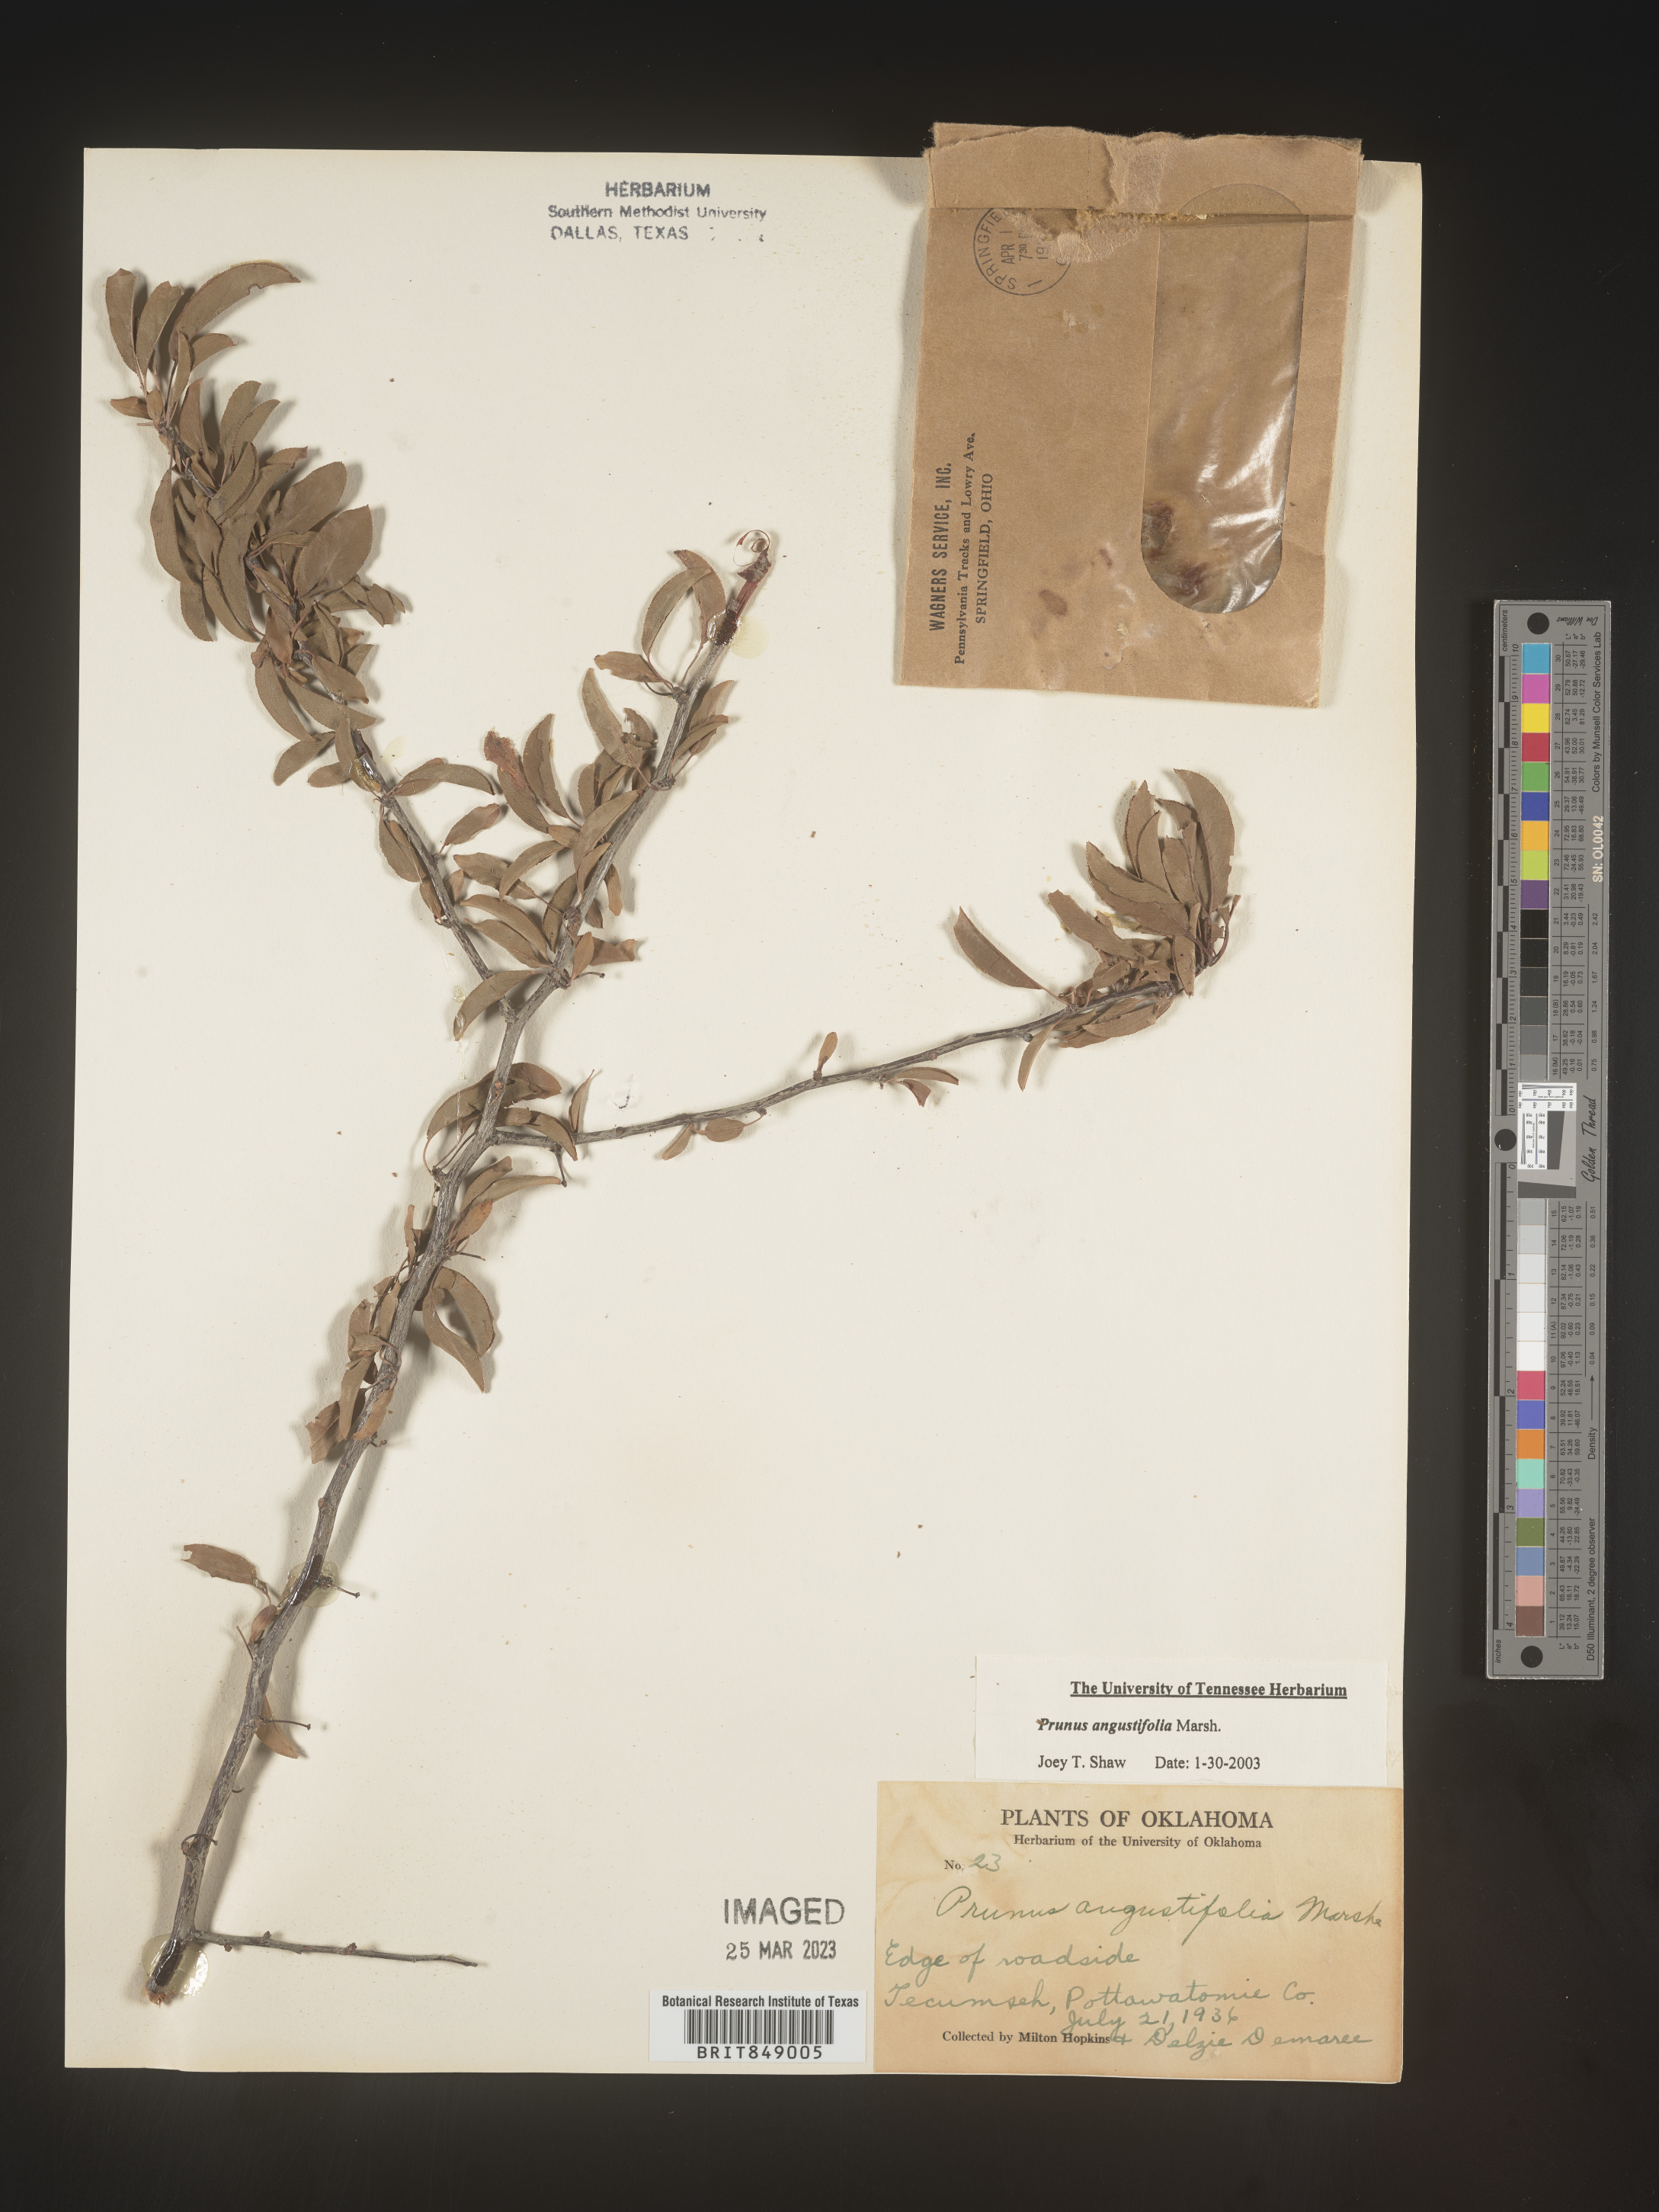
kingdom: Plantae
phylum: Tracheophyta
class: Magnoliopsida
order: Rosales
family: Rosaceae
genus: Prunus
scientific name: Prunus angustifolia
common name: Cherokee plum
